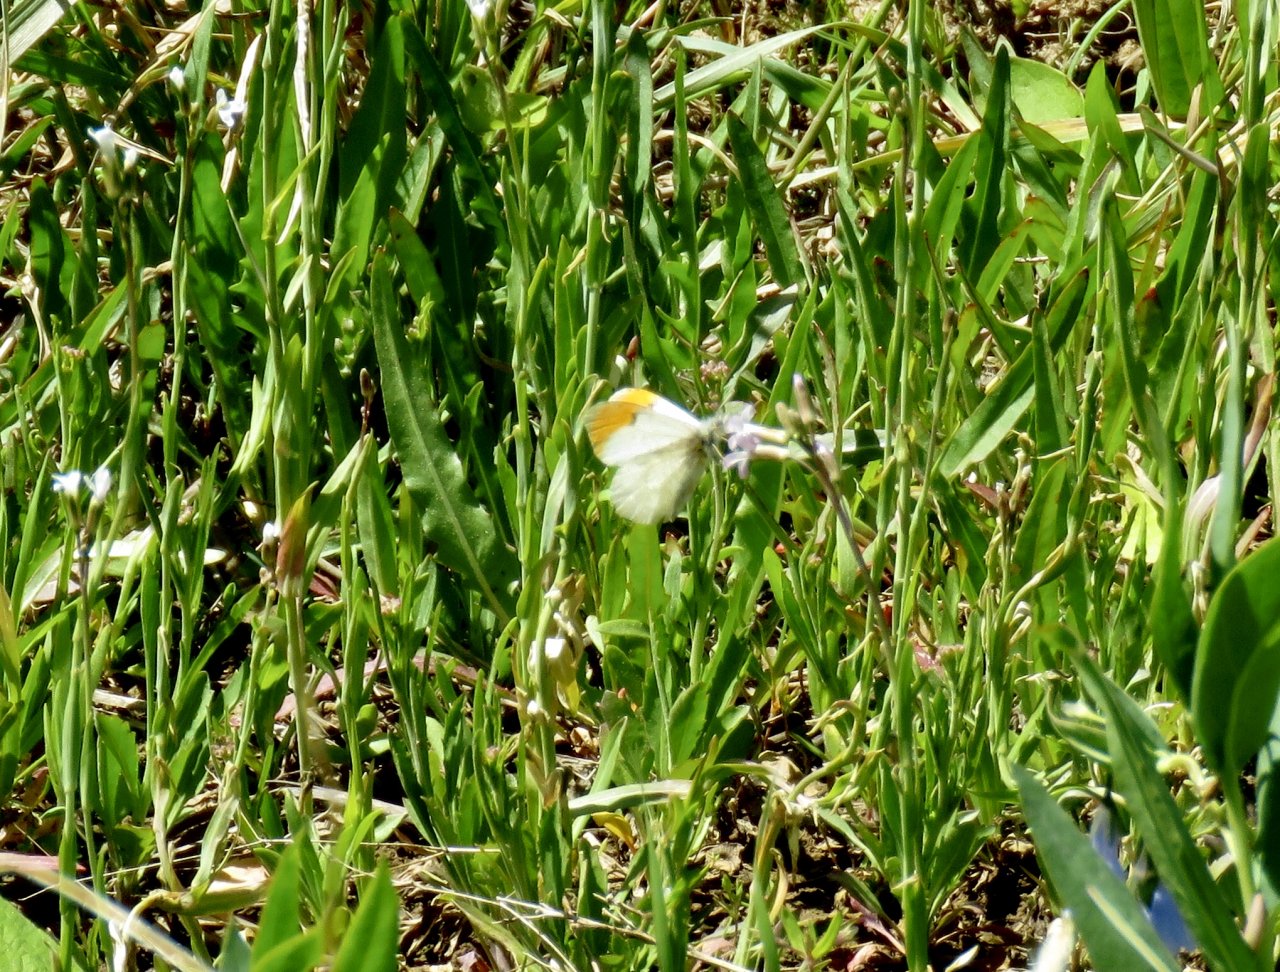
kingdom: Animalia
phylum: Arthropoda
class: Insecta
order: Lepidoptera
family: Pieridae
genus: Anthocharis
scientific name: Anthocharis sara
